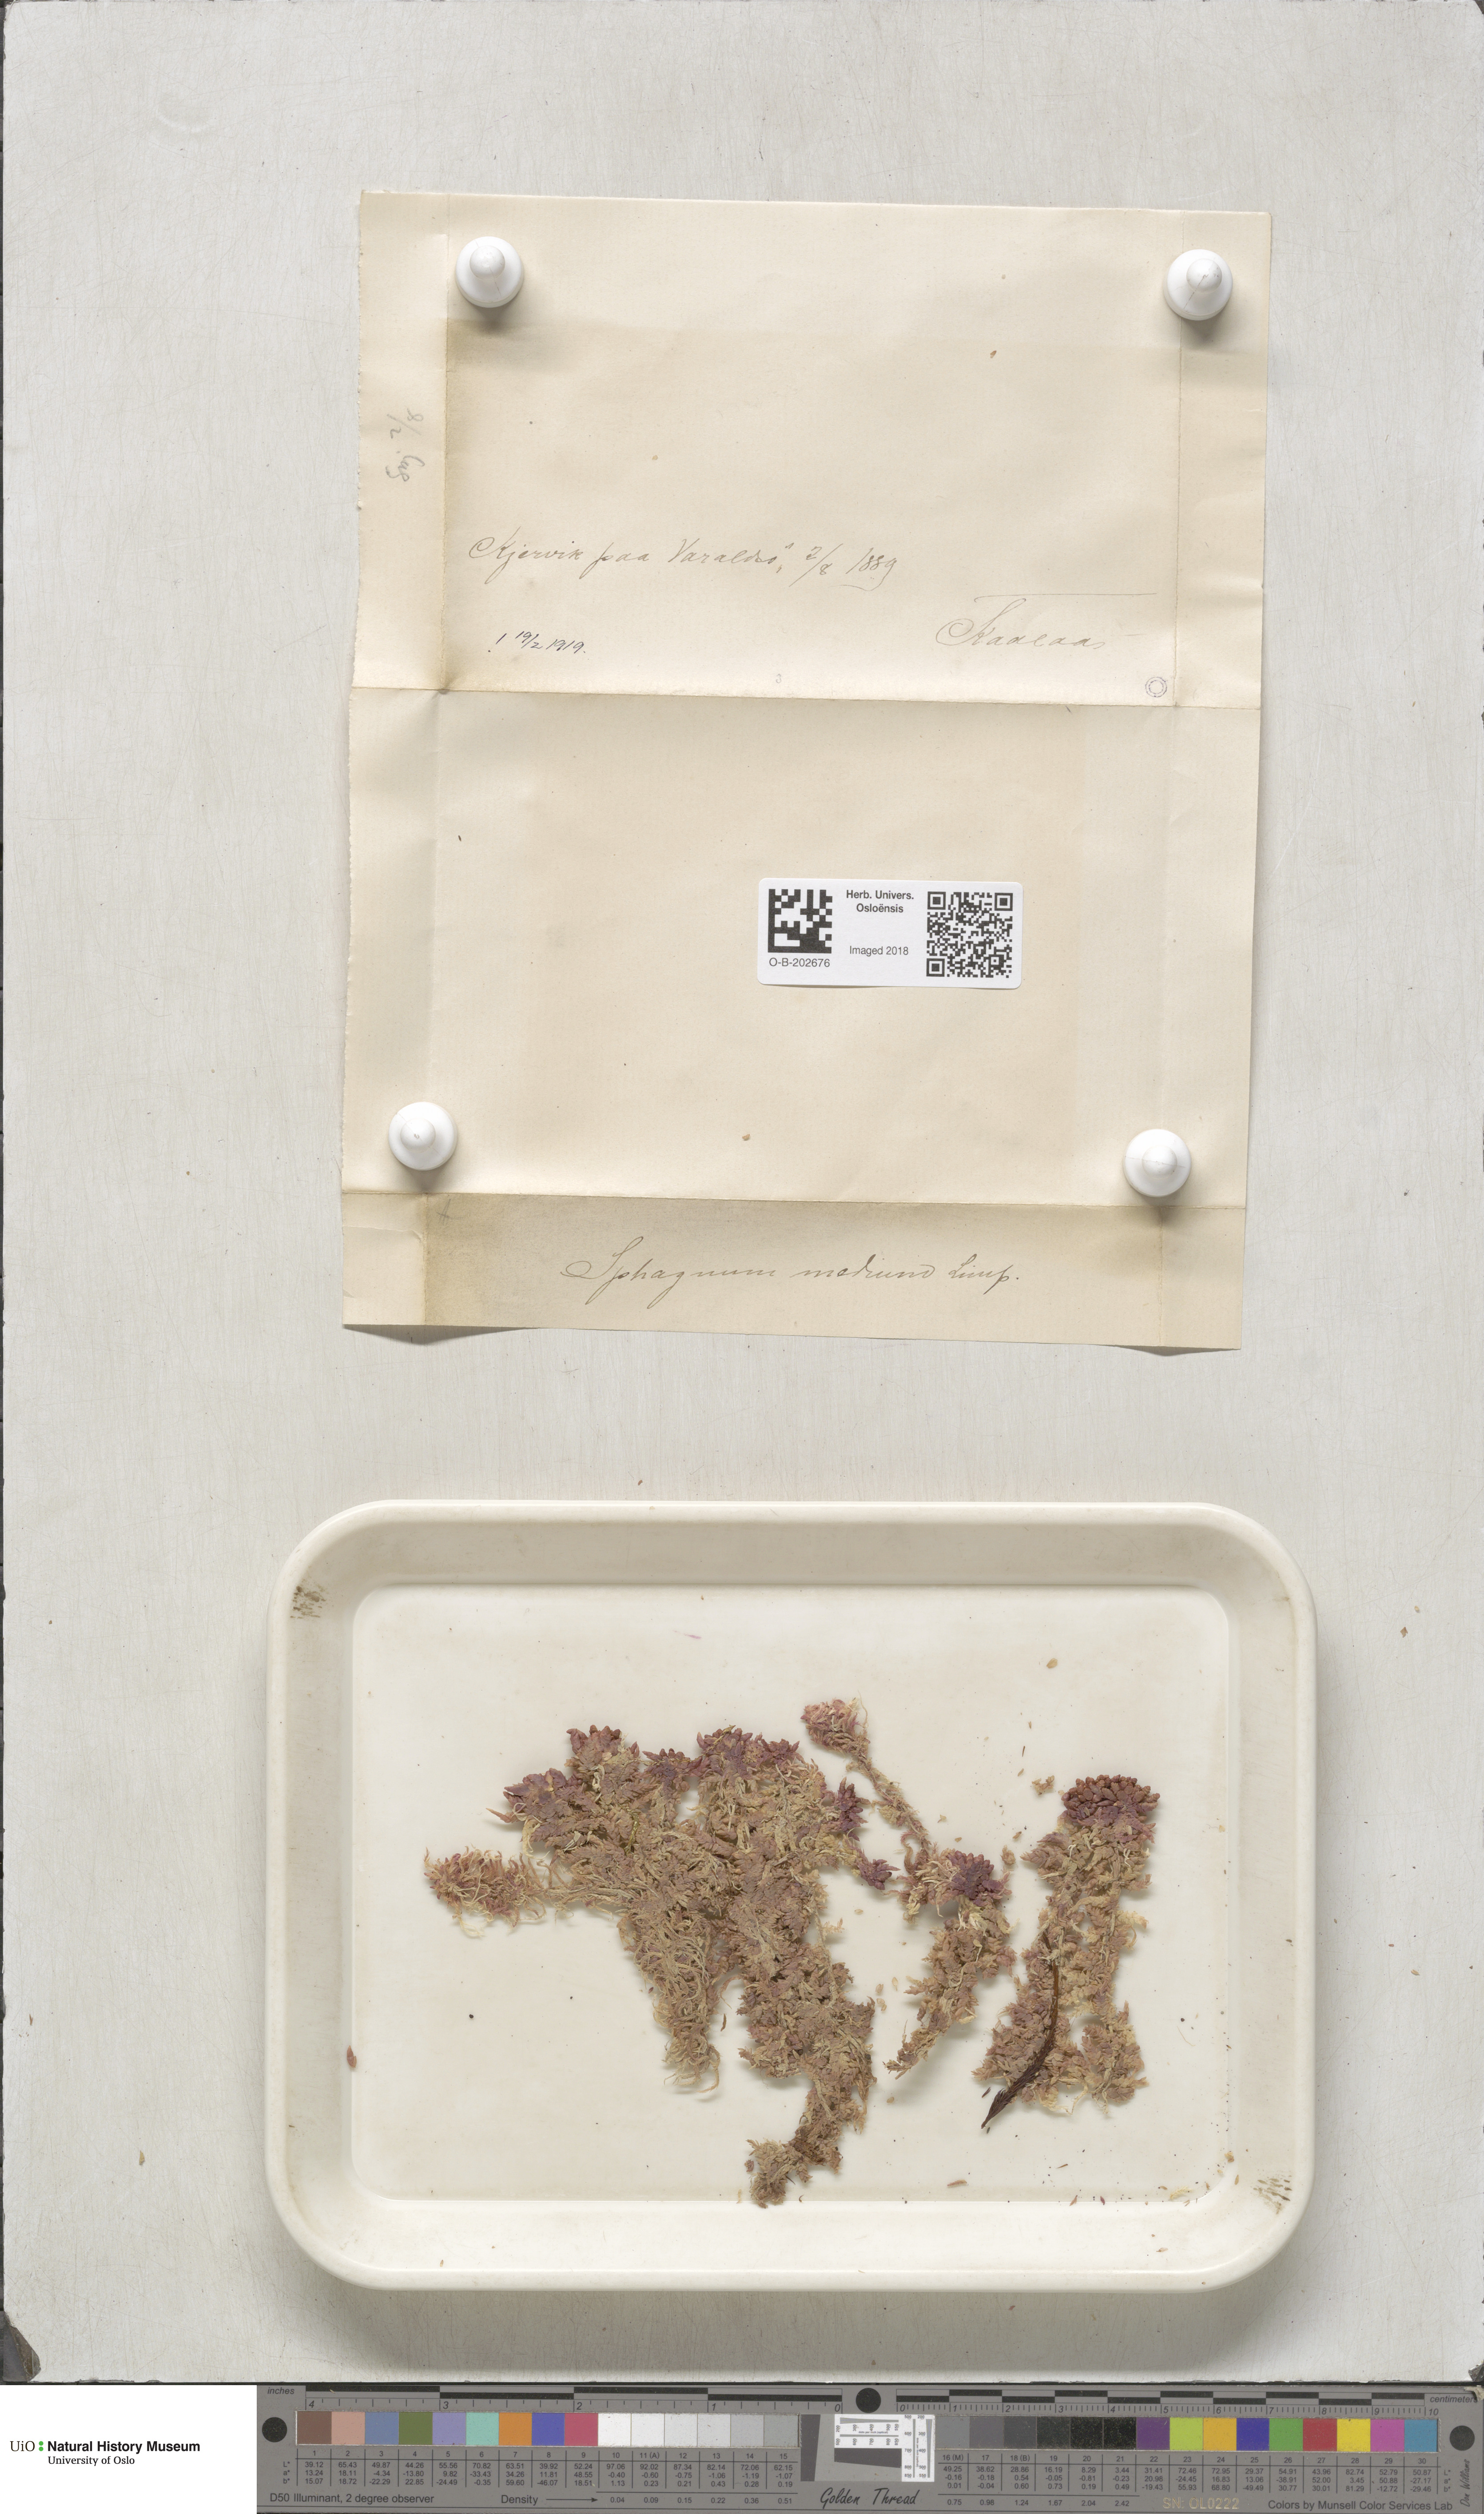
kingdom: Plantae
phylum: Bryophyta
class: Sphagnopsida
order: Sphagnales
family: Sphagnaceae
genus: Sphagnum
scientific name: Sphagnum magellanicum
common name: Magellan's peat moss
